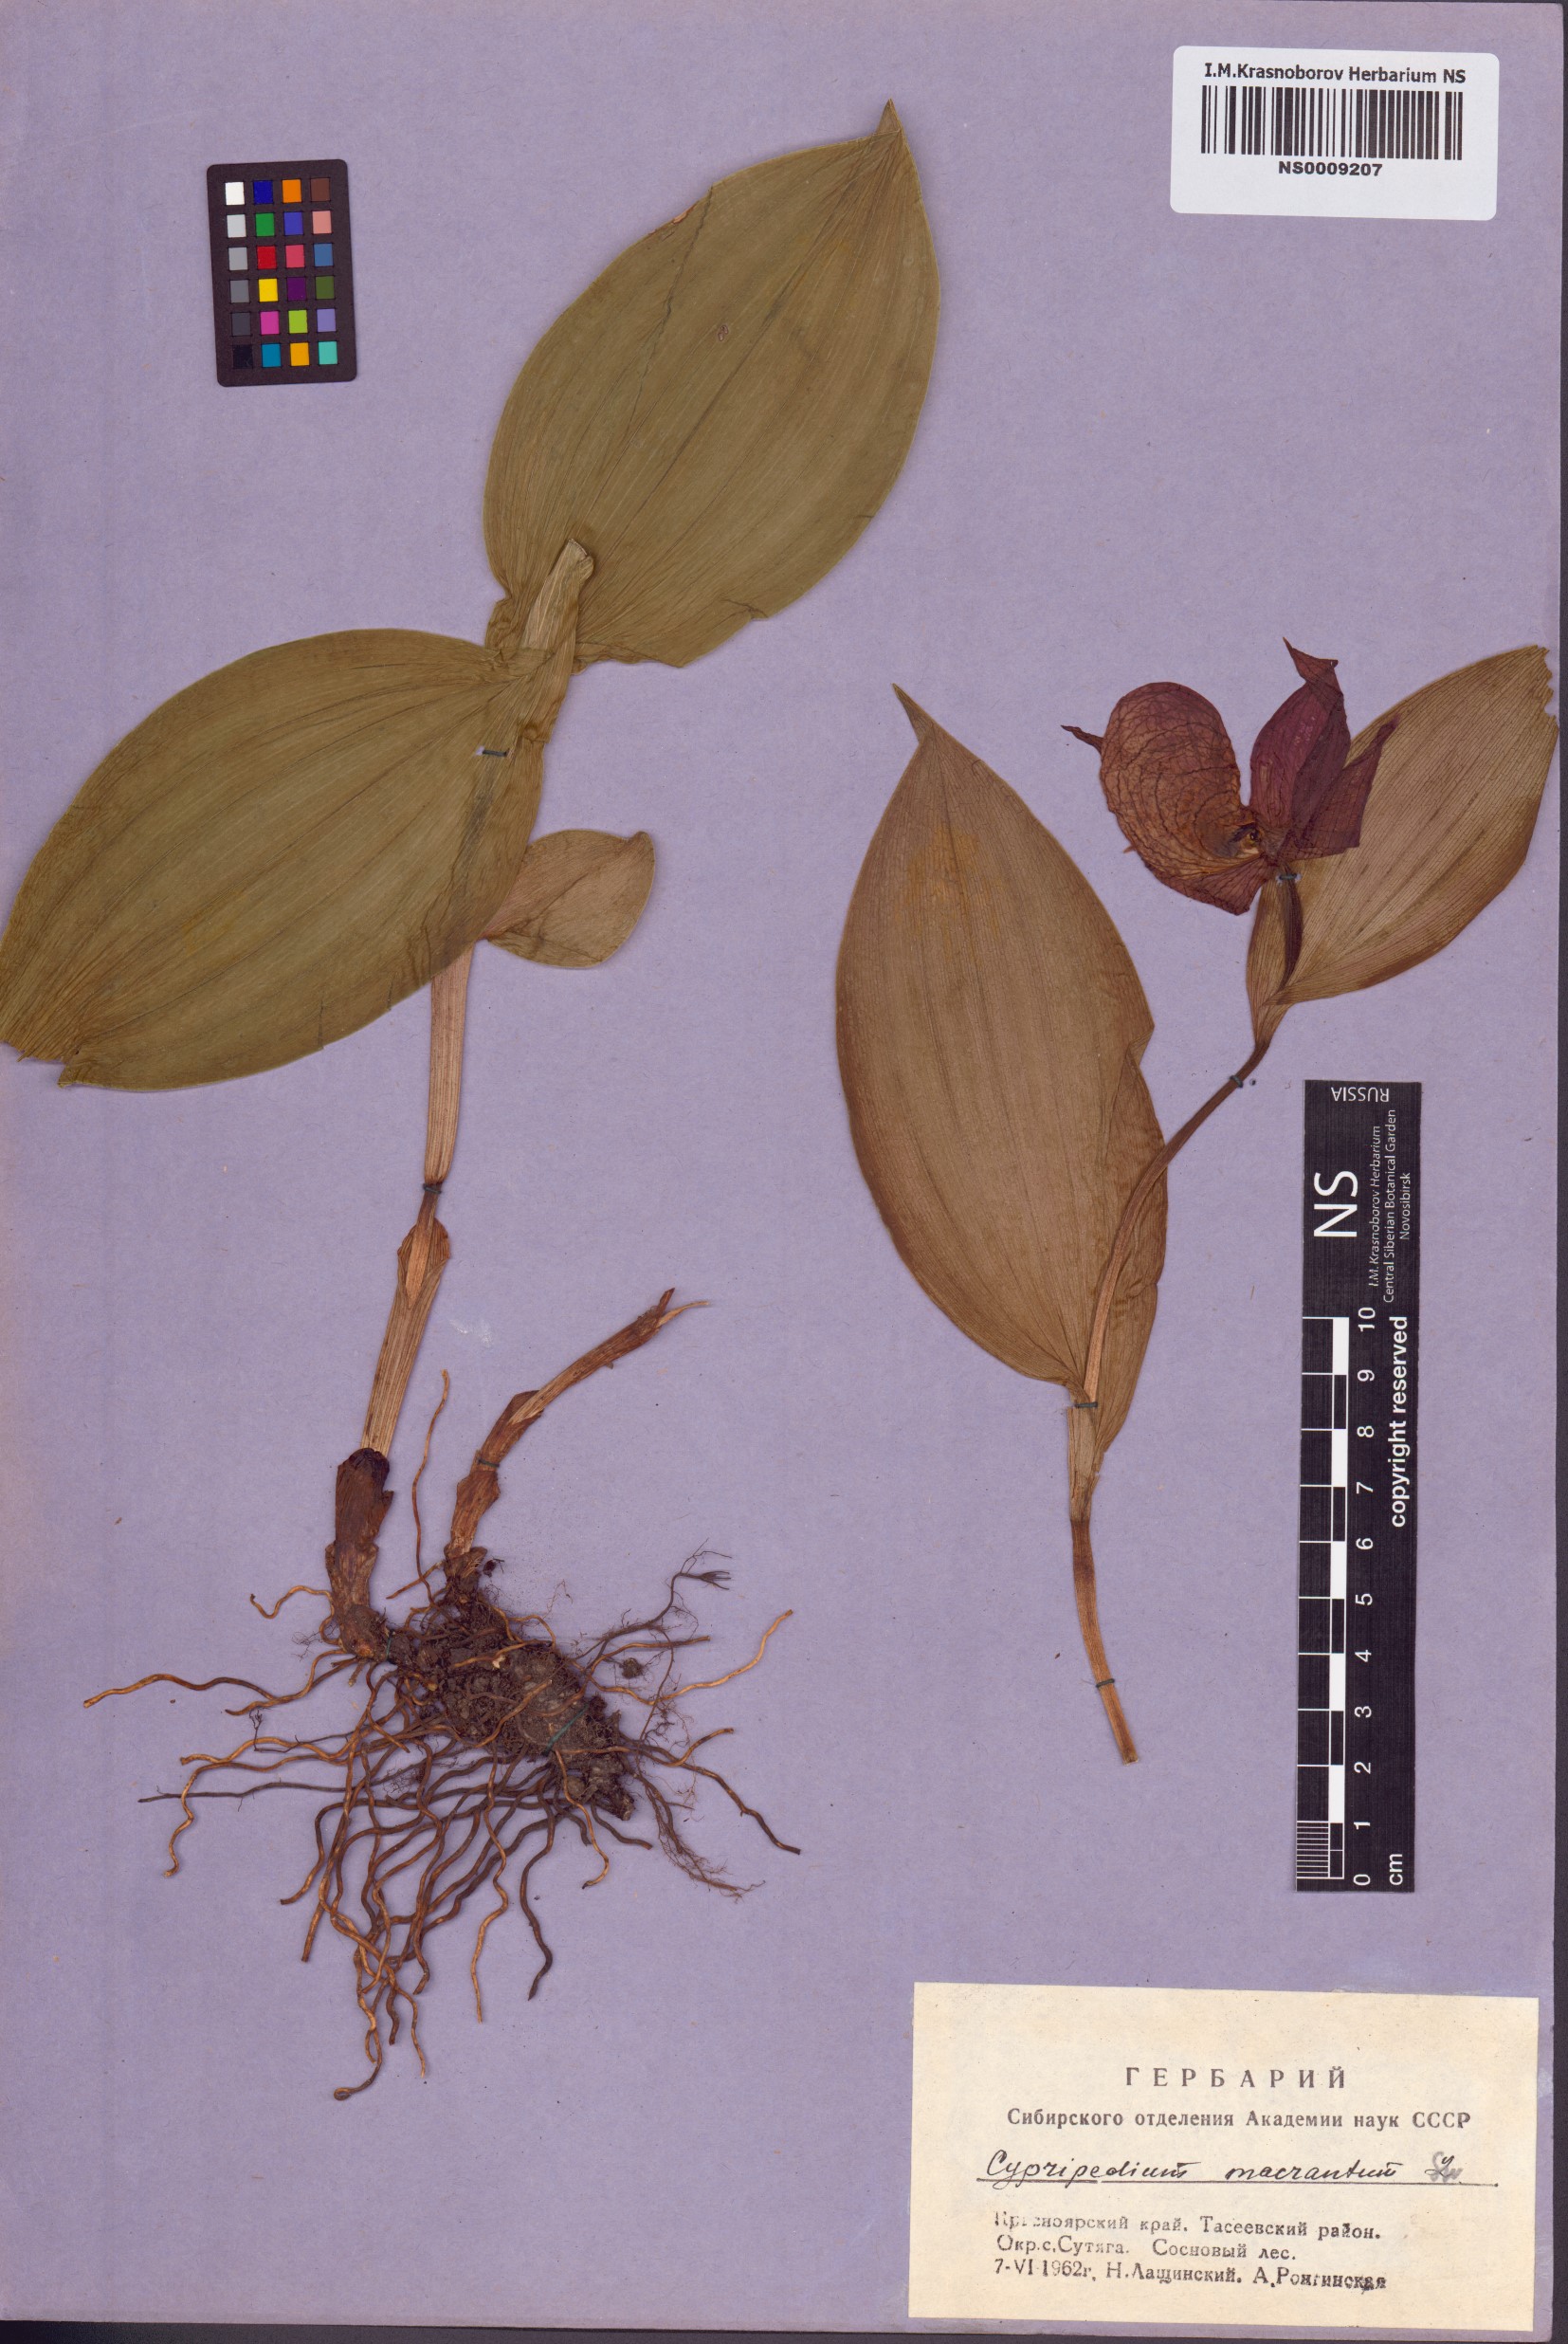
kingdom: Plantae
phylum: Tracheophyta
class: Liliopsida
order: Asparagales
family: Orchidaceae
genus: Cypripedium
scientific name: Cypripedium macranthos
